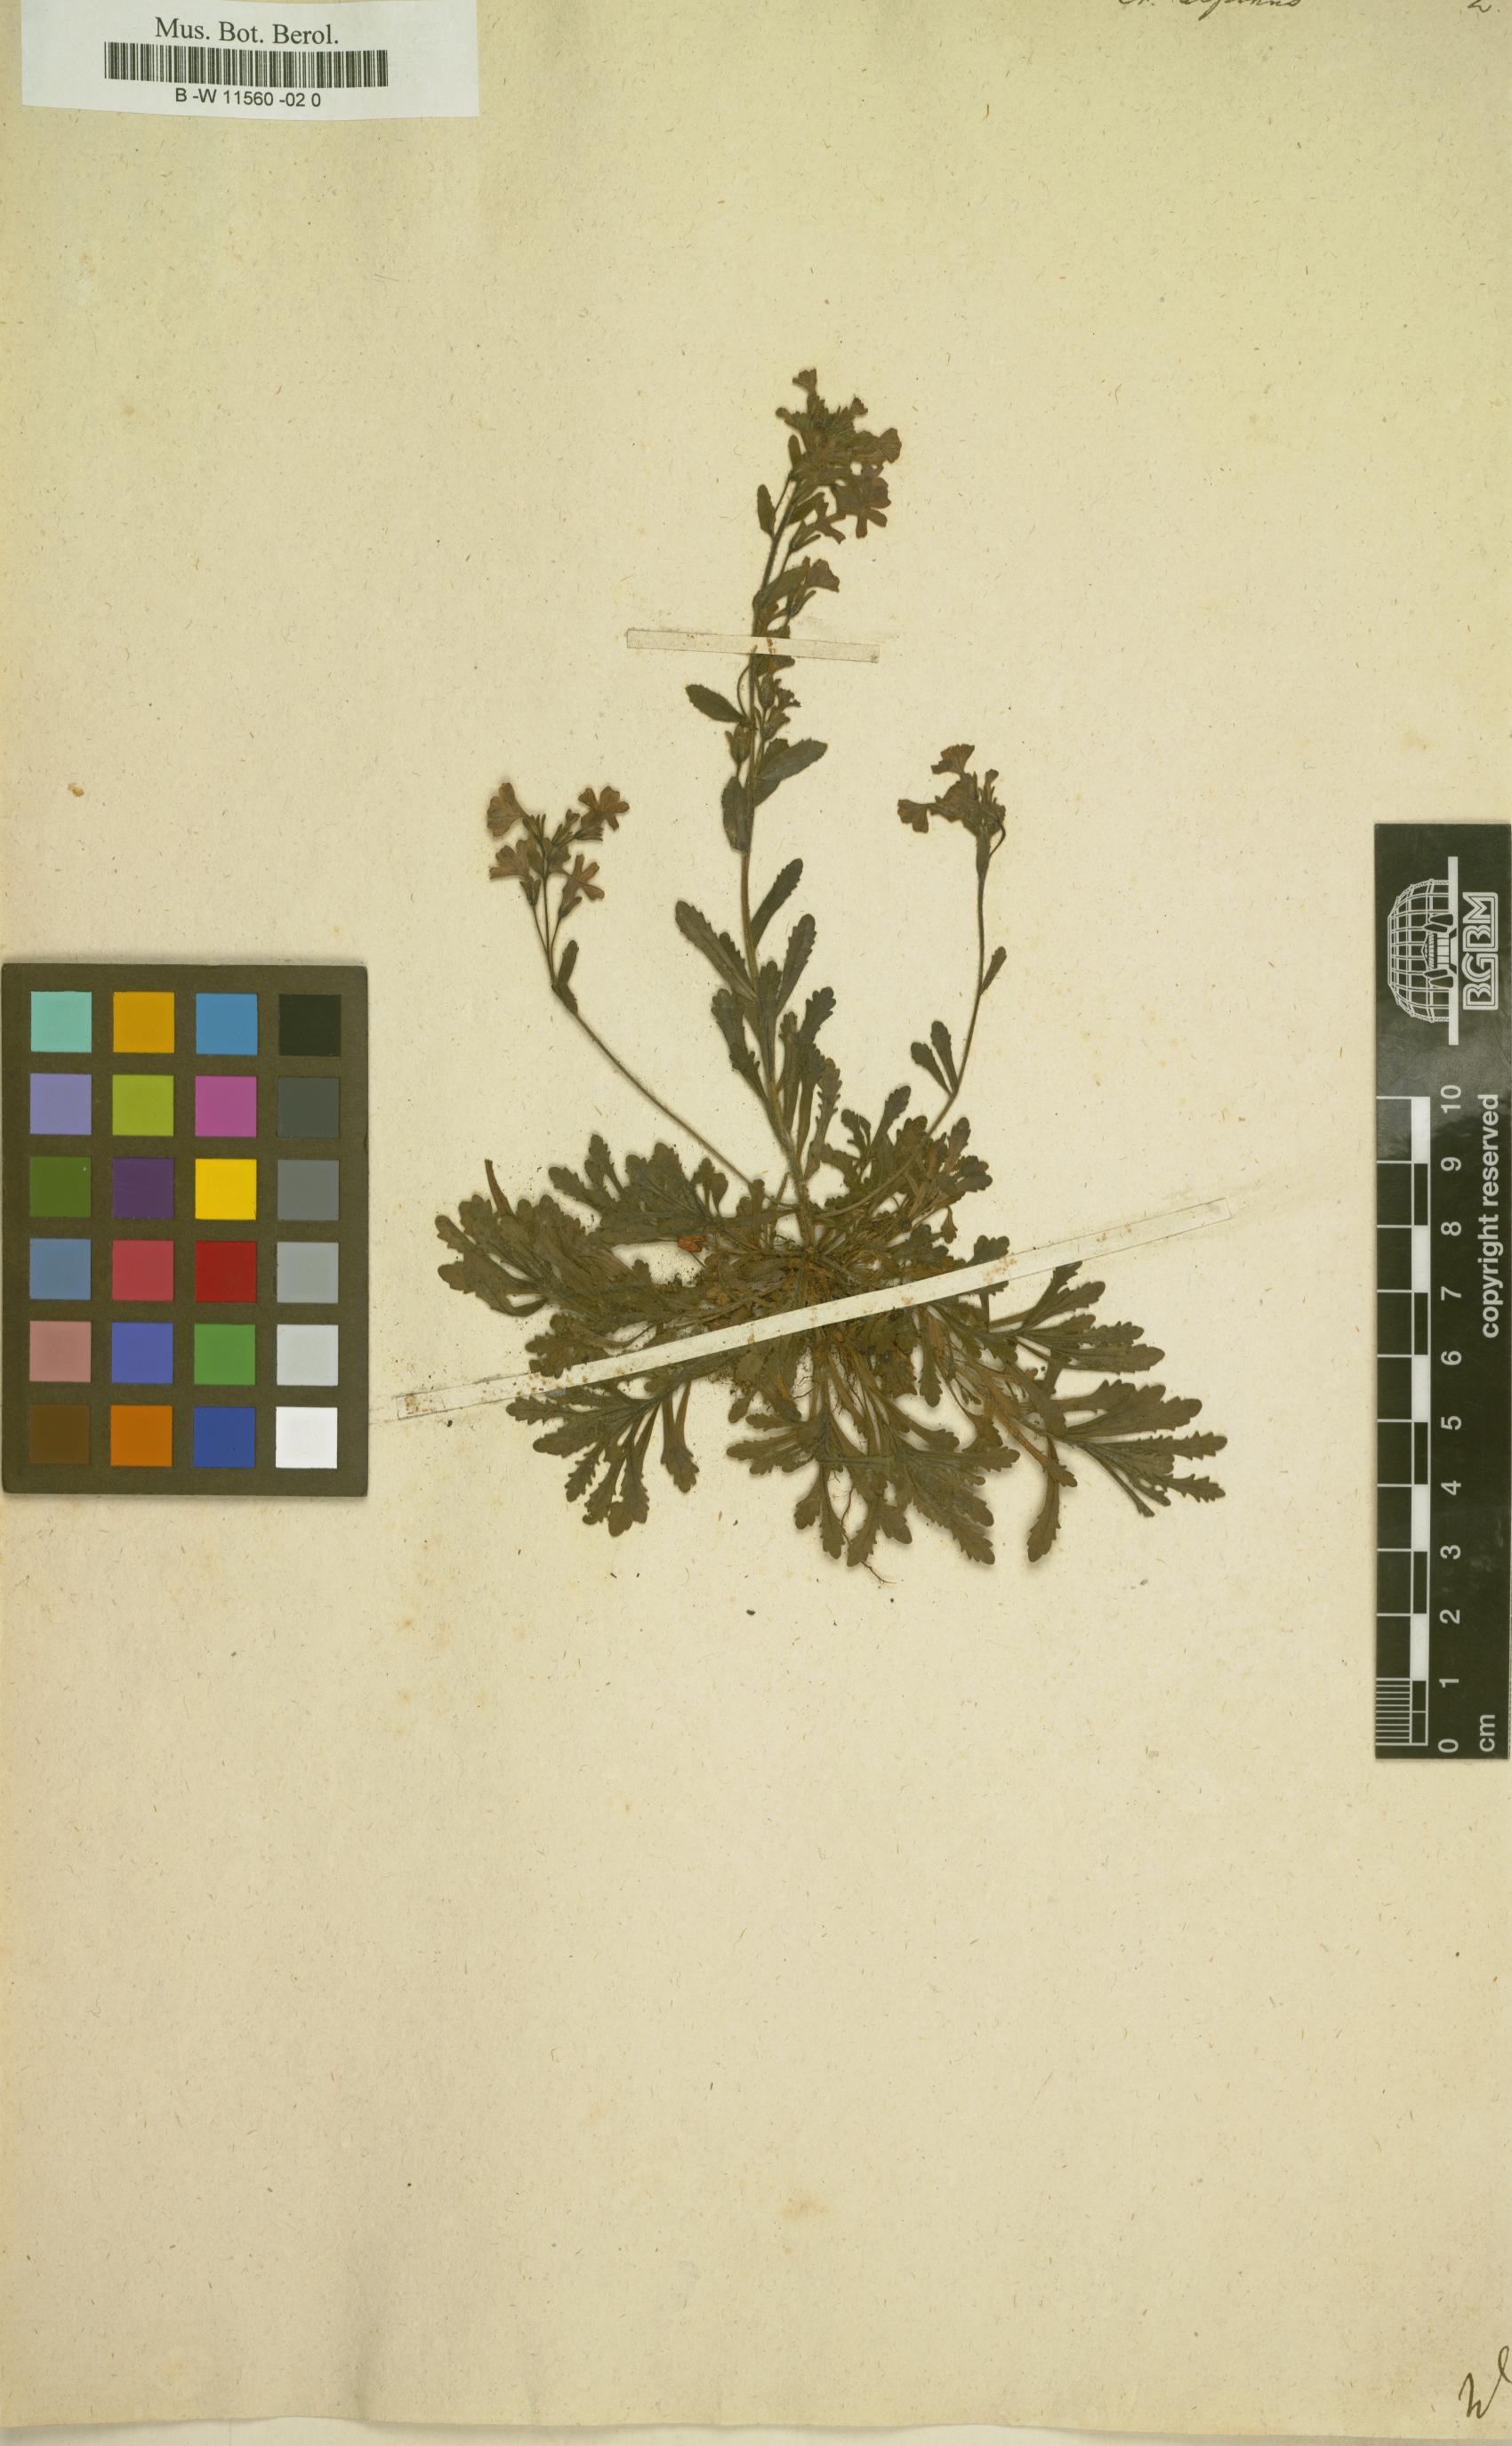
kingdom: Plantae
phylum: Tracheophyta
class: Magnoliopsida
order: Lamiales
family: Plantaginaceae
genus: Erinus
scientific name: Erinus alpinus
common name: Fairy foxglove
